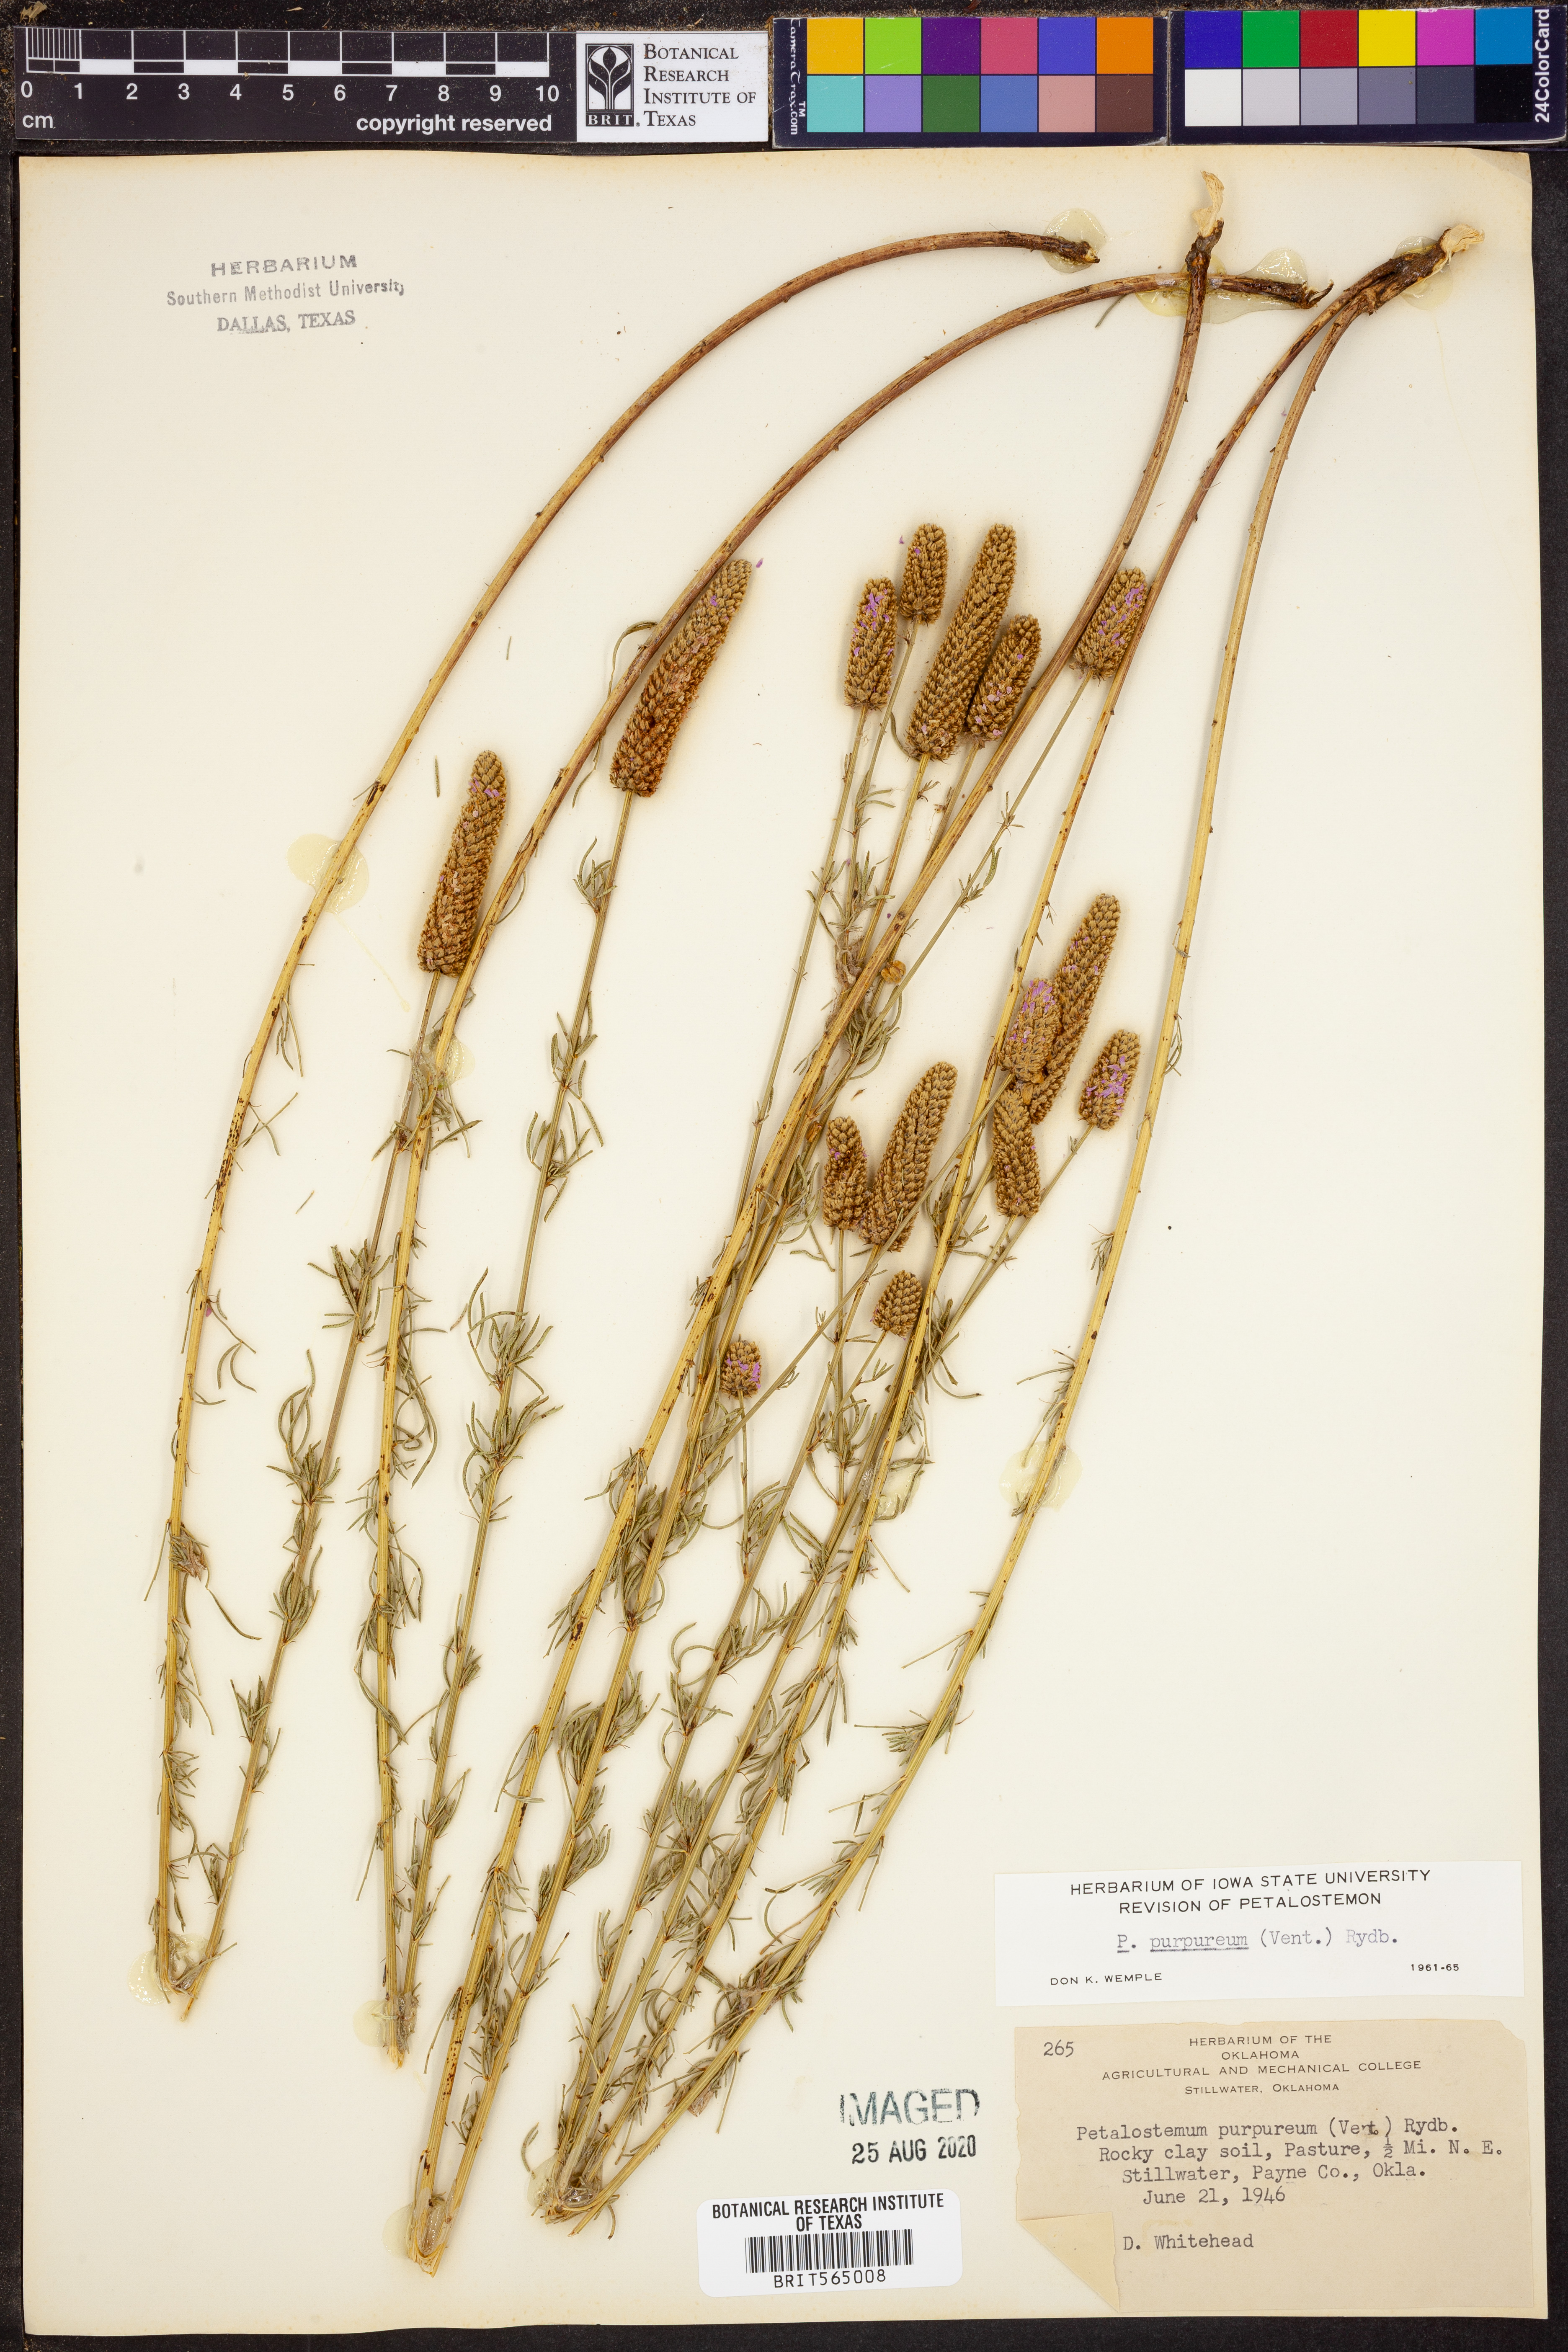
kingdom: Plantae
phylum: Tracheophyta
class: Magnoliopsida
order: Fabales
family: Fabaceae
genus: Dalea
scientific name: Dalea purpurea
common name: Purple prairie-clover
